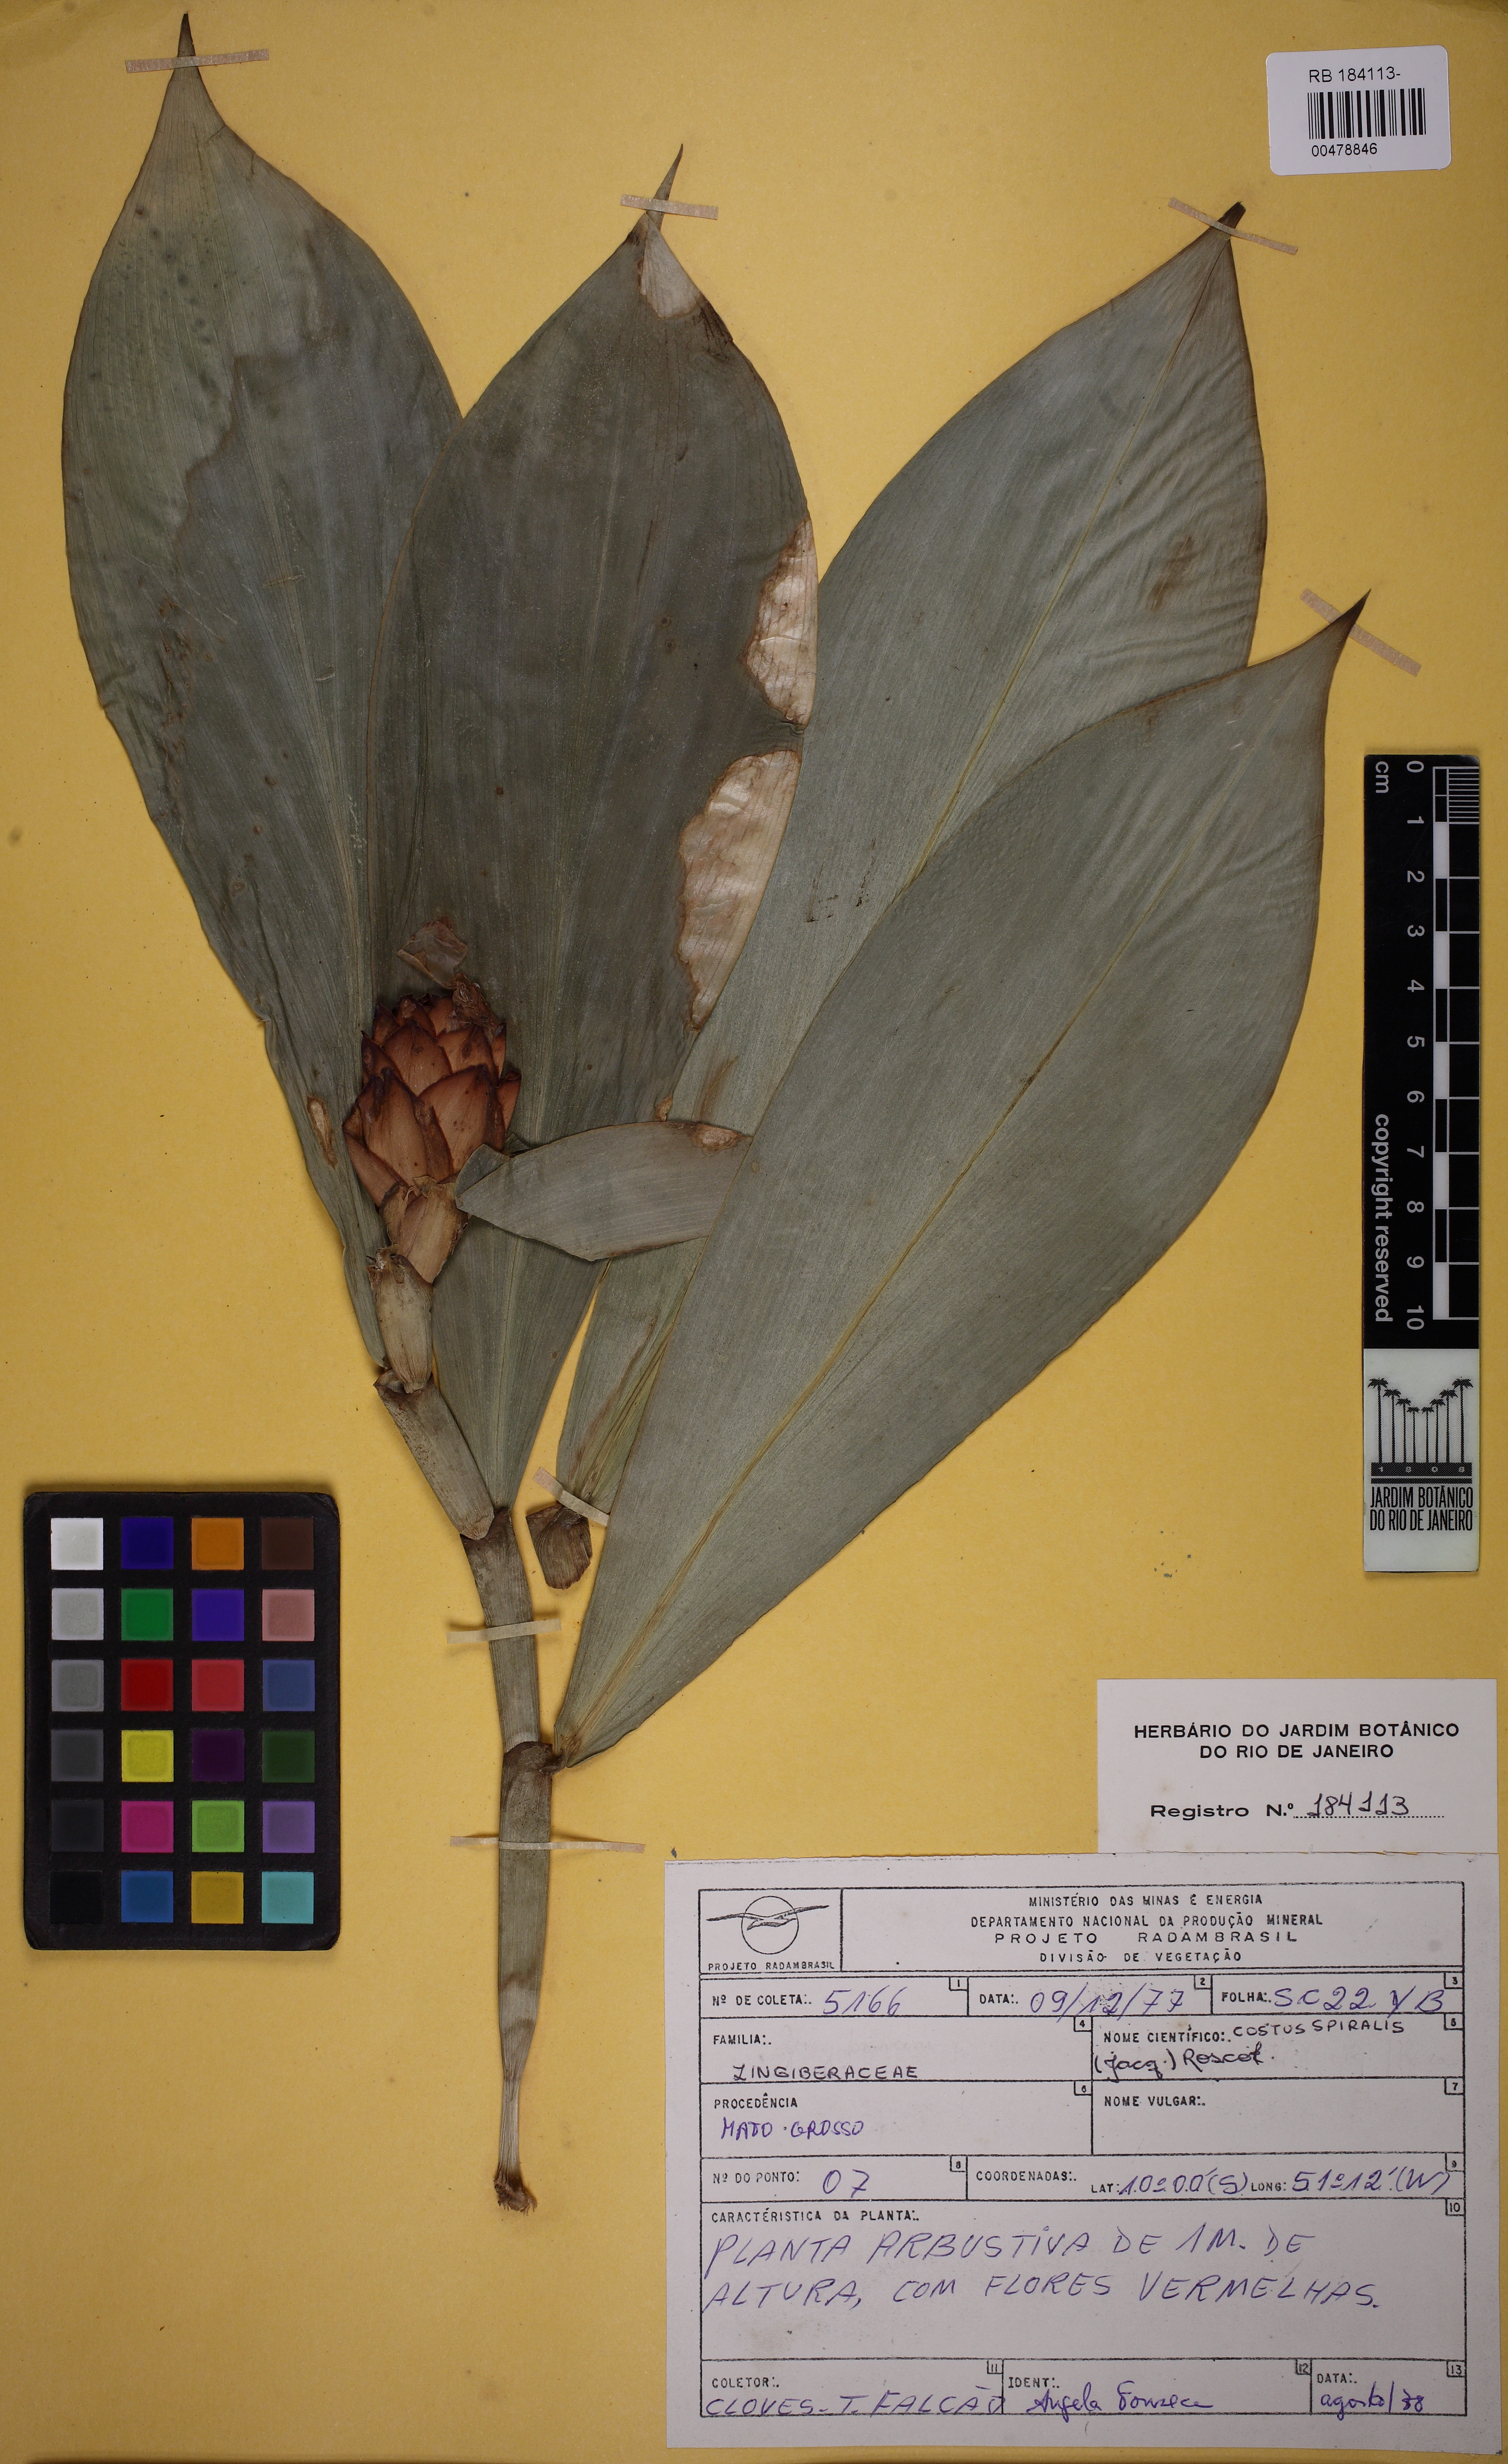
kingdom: Plantae
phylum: Tracheophyta
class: Liliopsida
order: Zingiberales
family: Costaceae
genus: Costus
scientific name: Costus spiralis
